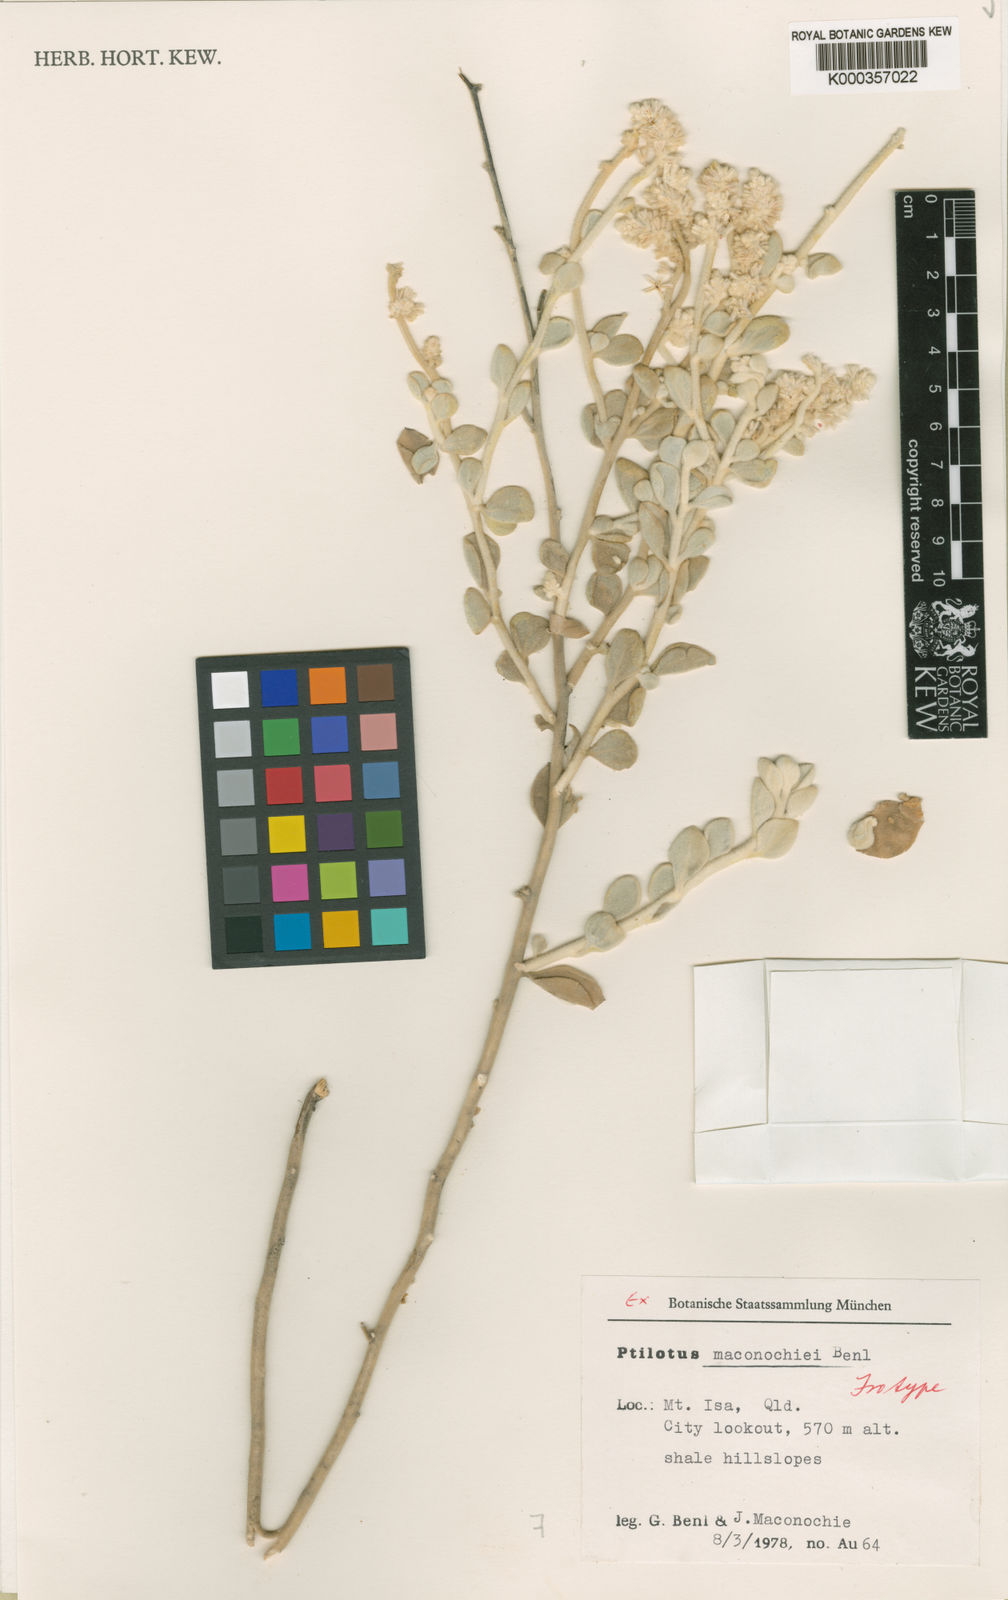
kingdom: Plantae
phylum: Tracheophyta
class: Magnoliopsida
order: Caryophyllales
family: Amaranthaceae
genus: Ptilotus
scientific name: Ptilotus maconochiei
